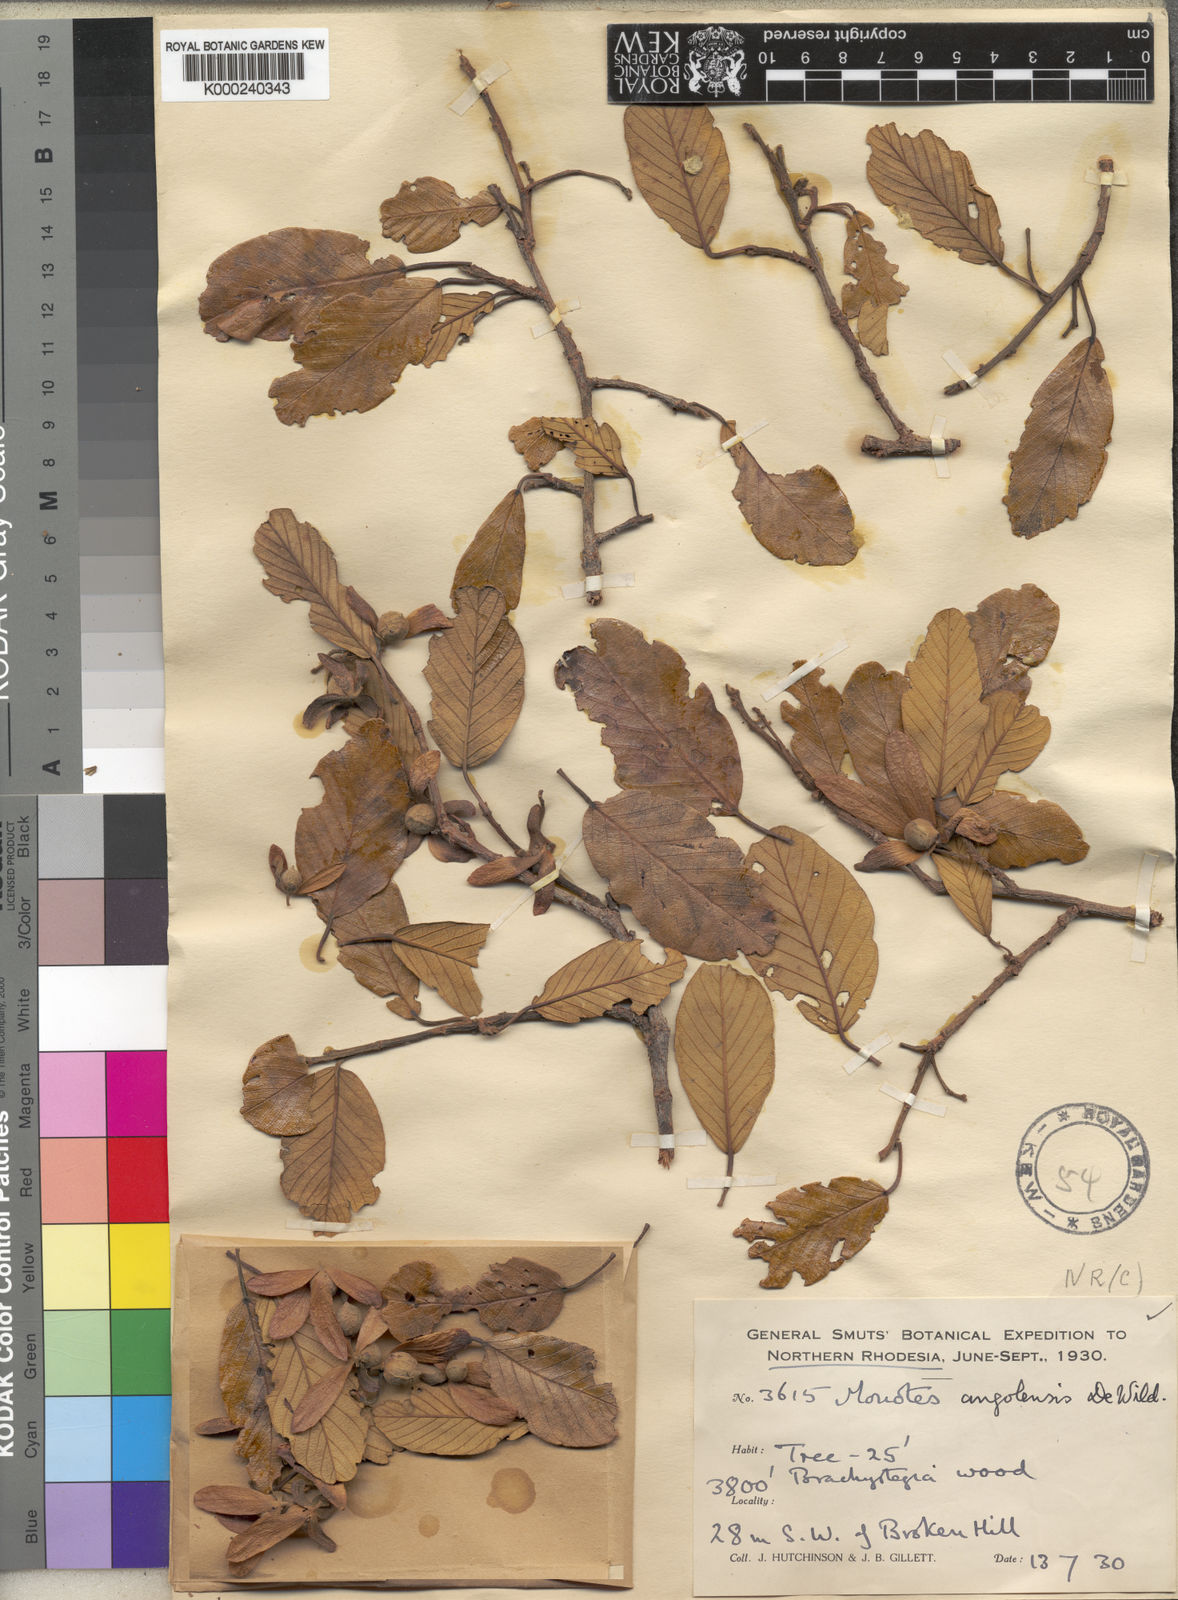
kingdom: Plantae
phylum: Tracheophyta
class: Magnoliopsida
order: Malvales
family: Dipterocarpaceae
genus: Monotes
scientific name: Monotes hypoleucus
